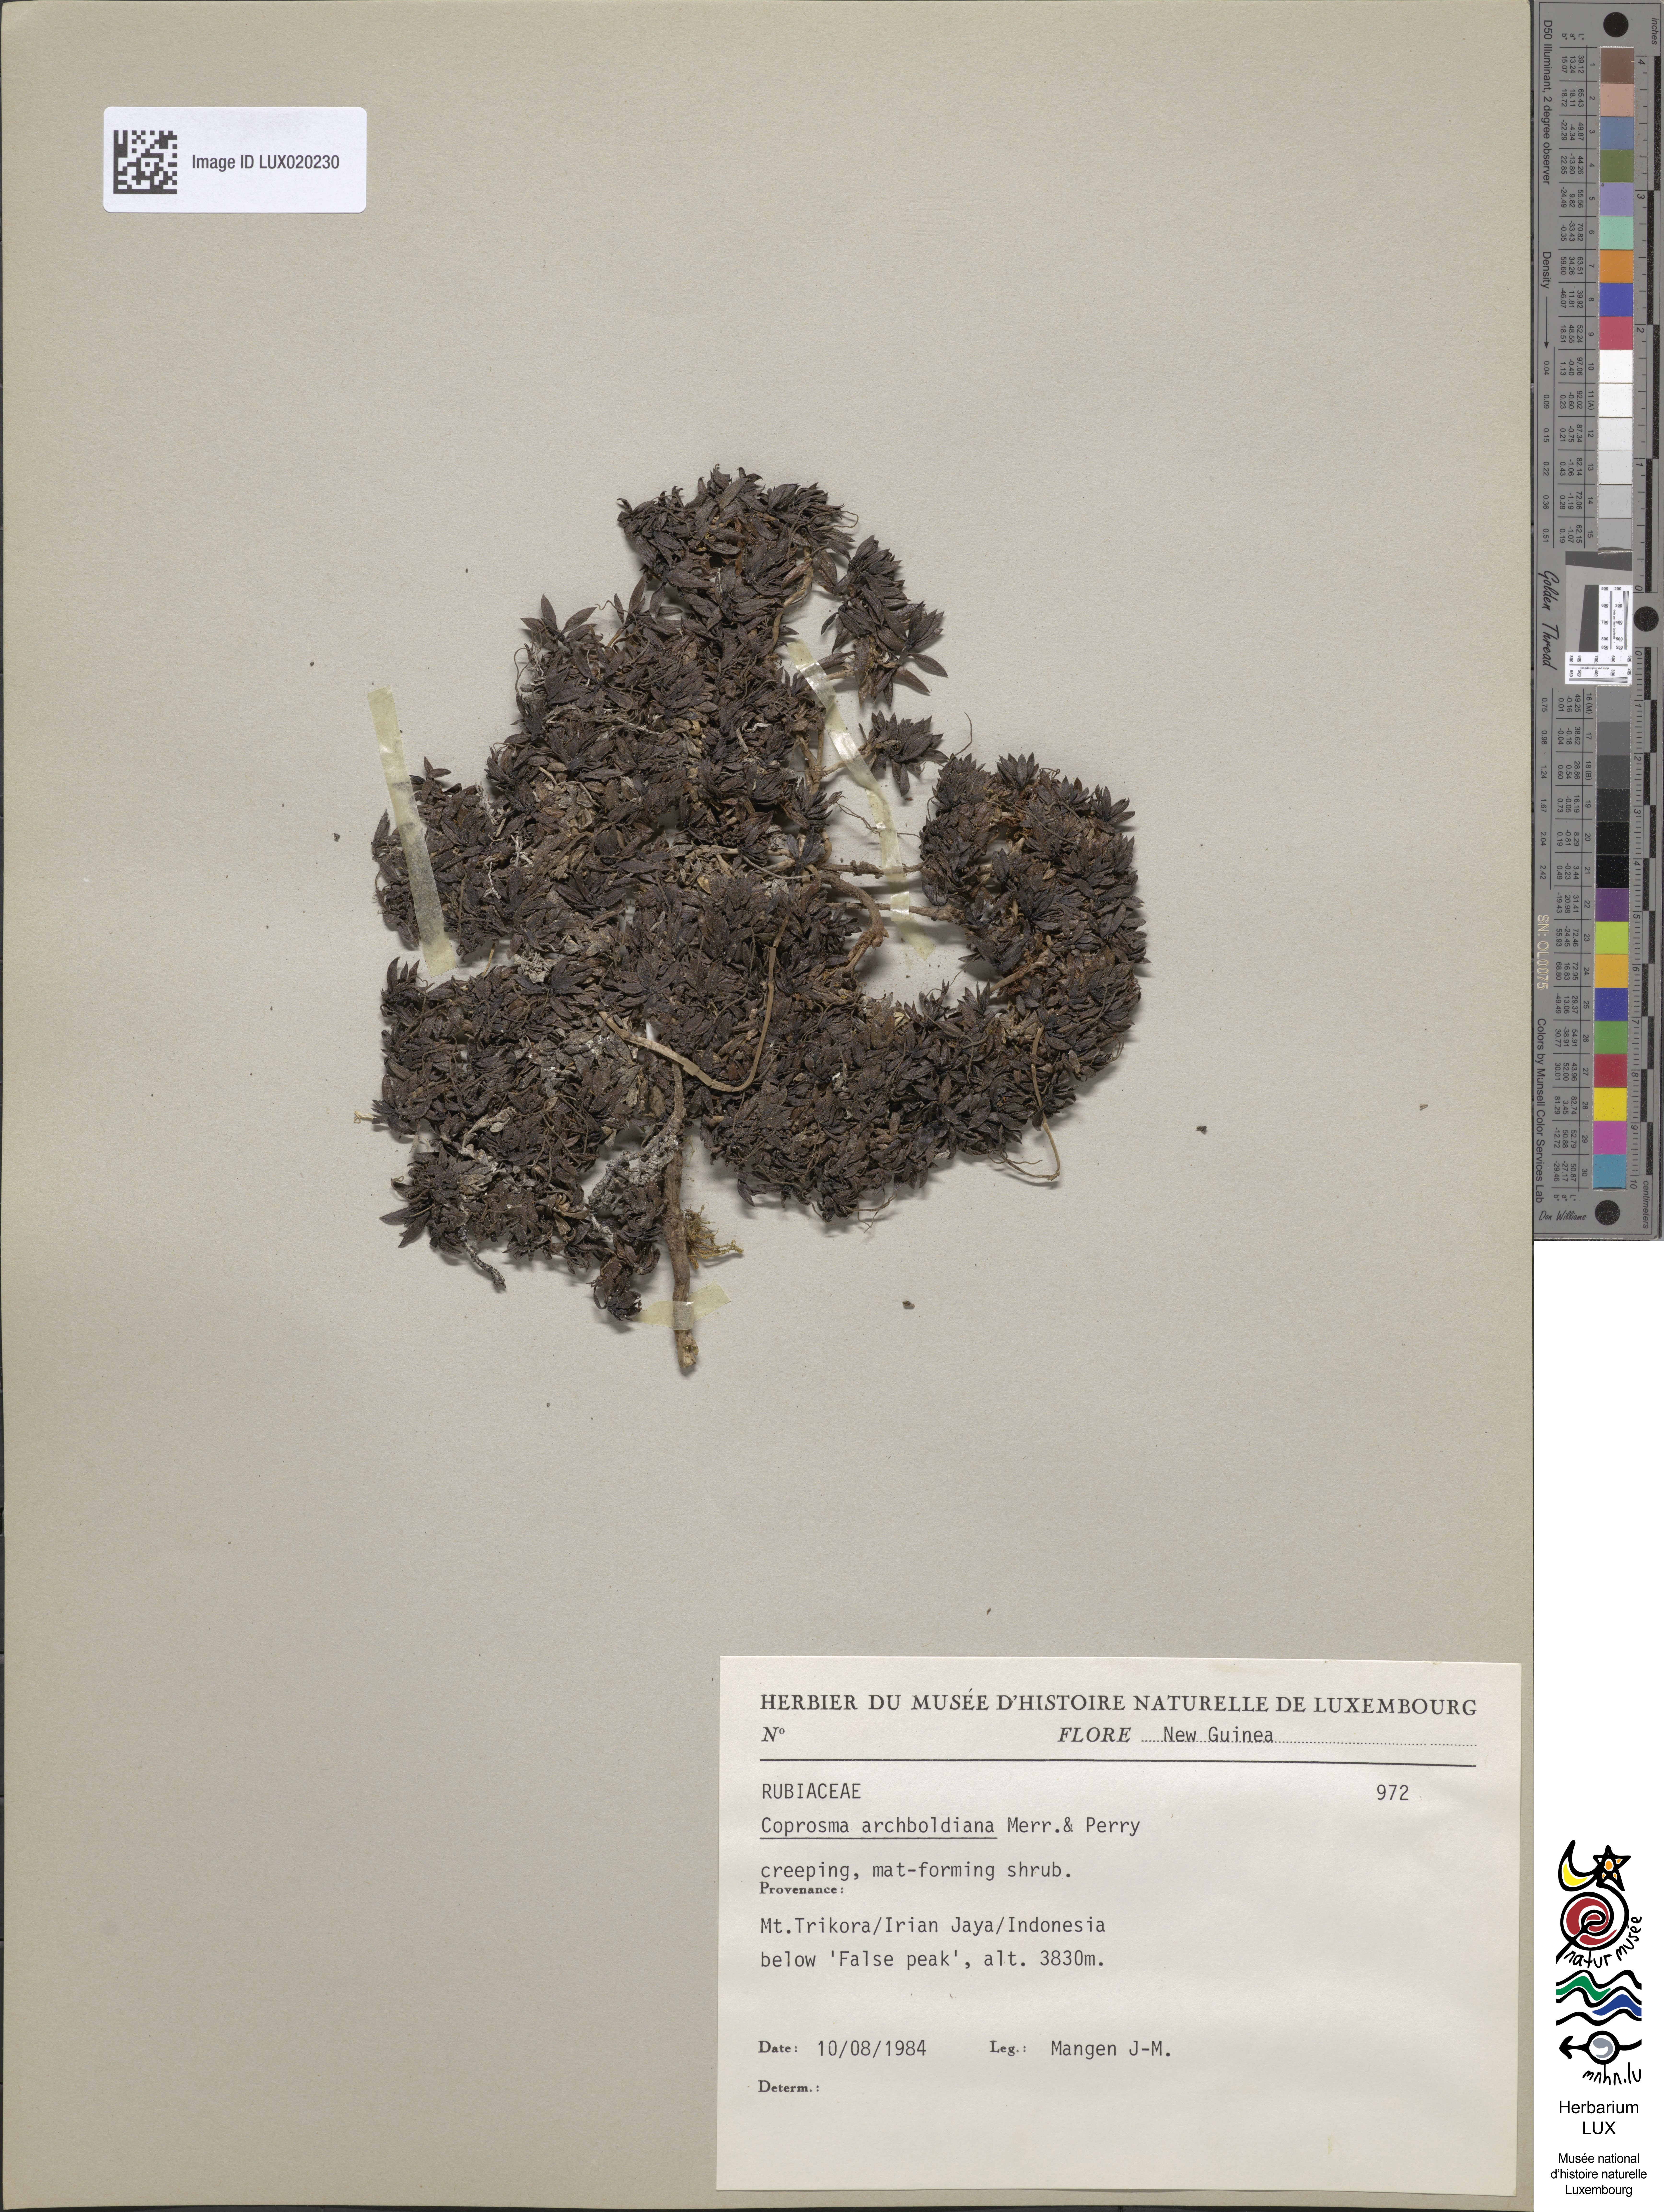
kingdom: Plantae
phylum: Tracheophyta
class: Magnoliopsida
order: Gentianales
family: Rubiaceae
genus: Coprosma
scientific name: Coprosma archboldiana
